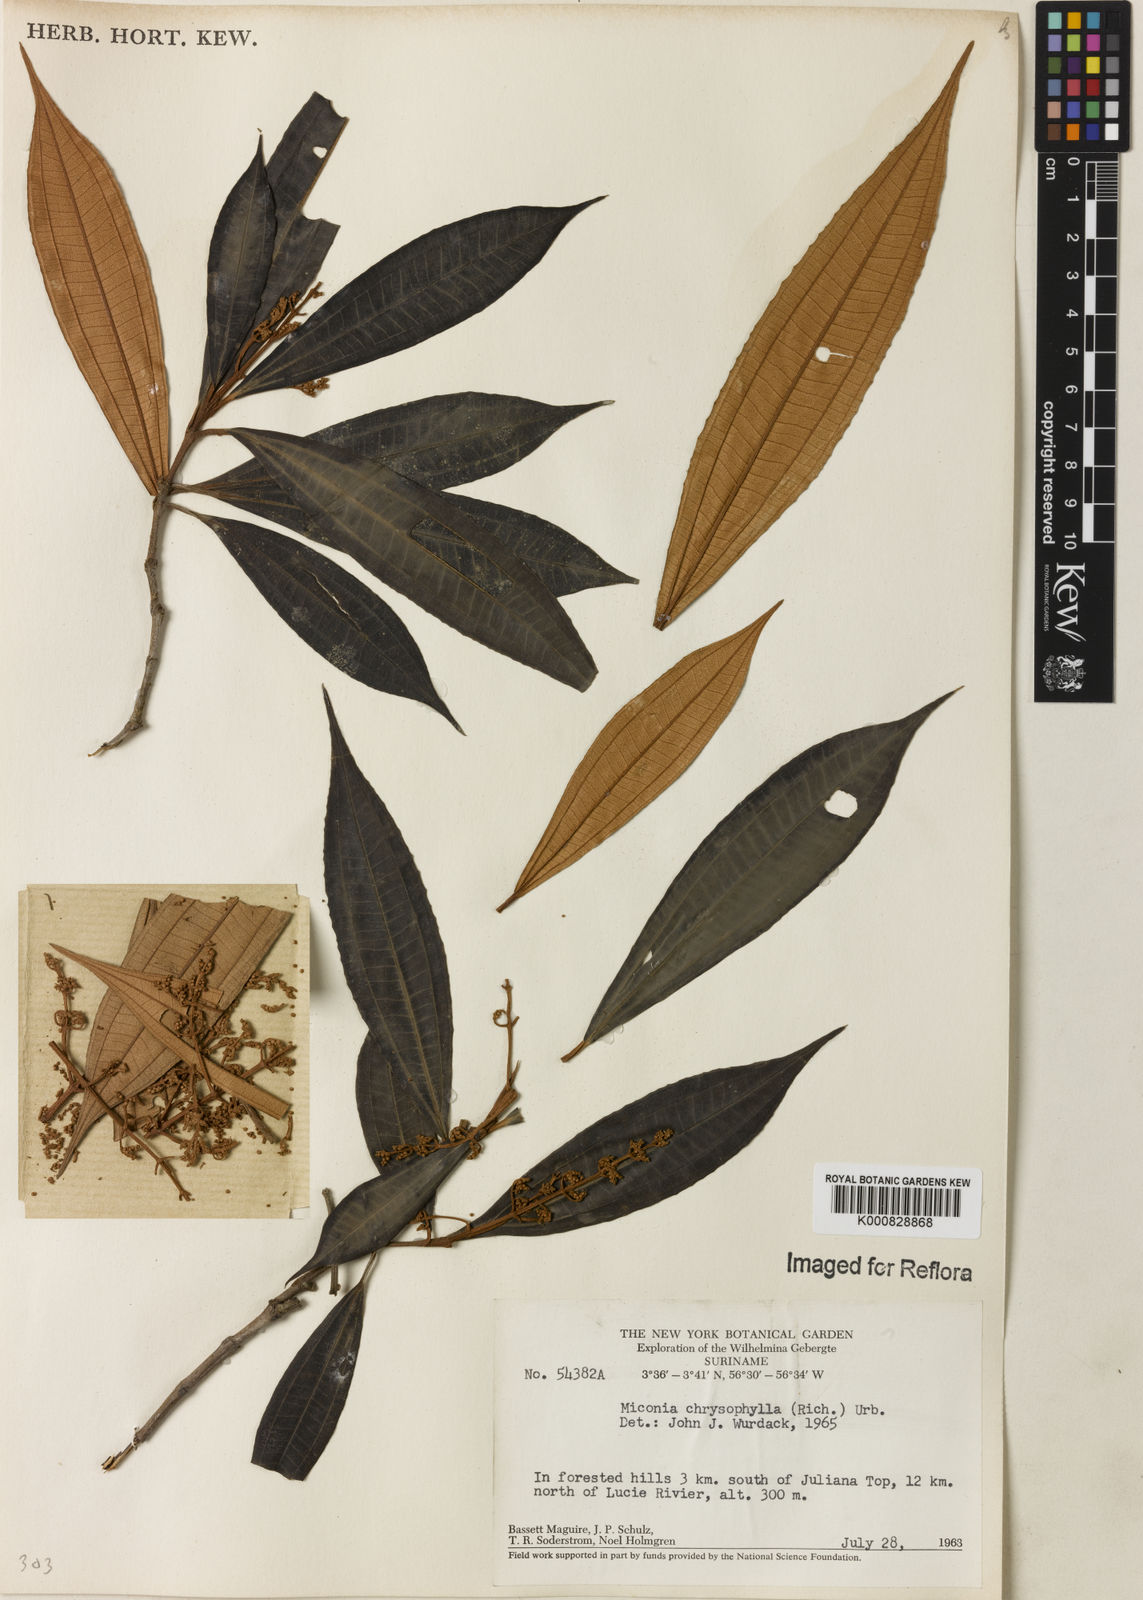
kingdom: Plantae
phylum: Tracheophyta
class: Magnoliopsida
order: Myrtales
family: Melastomataceae
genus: Miconia
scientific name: Miconia chrysophylla
